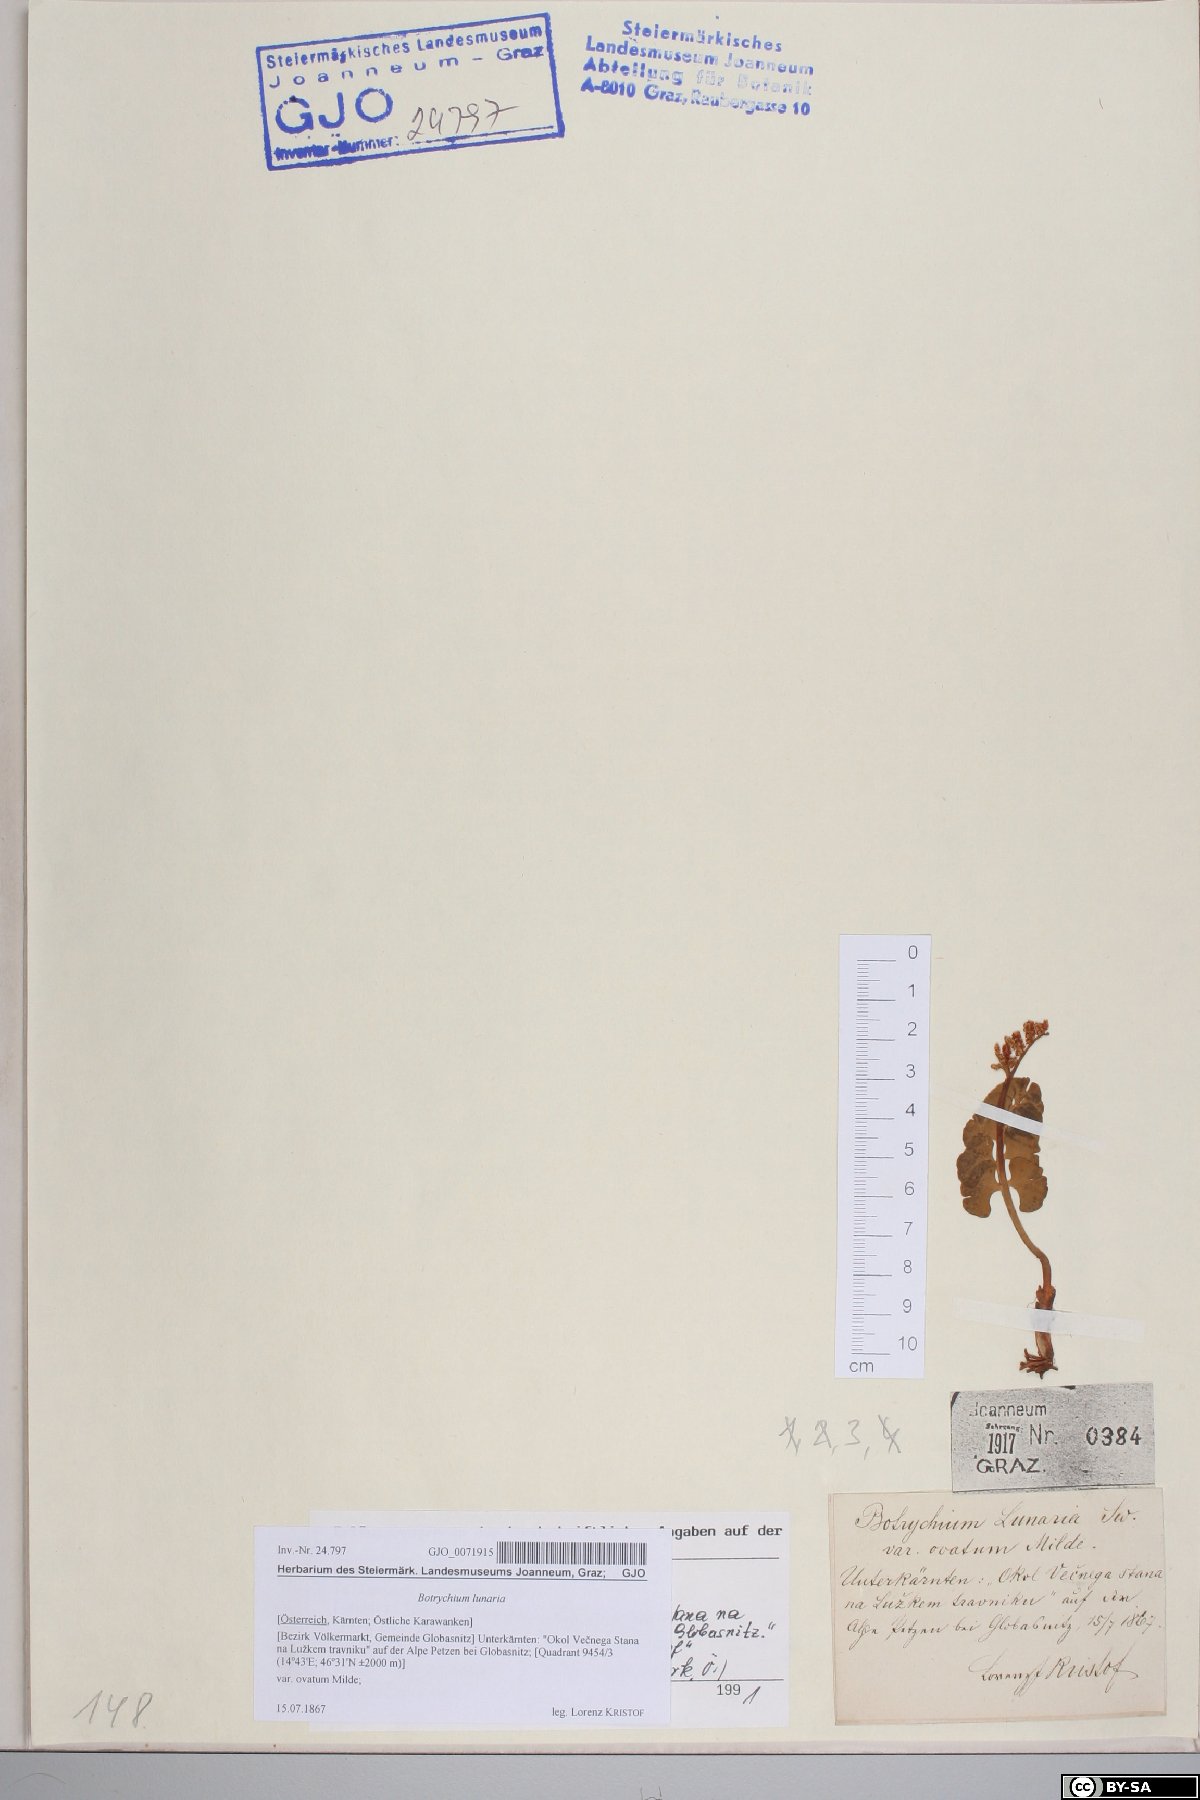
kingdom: Plantae
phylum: Tracheophyta
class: Polypodiopsida
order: Ophioglossales
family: Ophioglossaceae
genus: Botrychium
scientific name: Botrychium lunaria
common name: Moonwort
